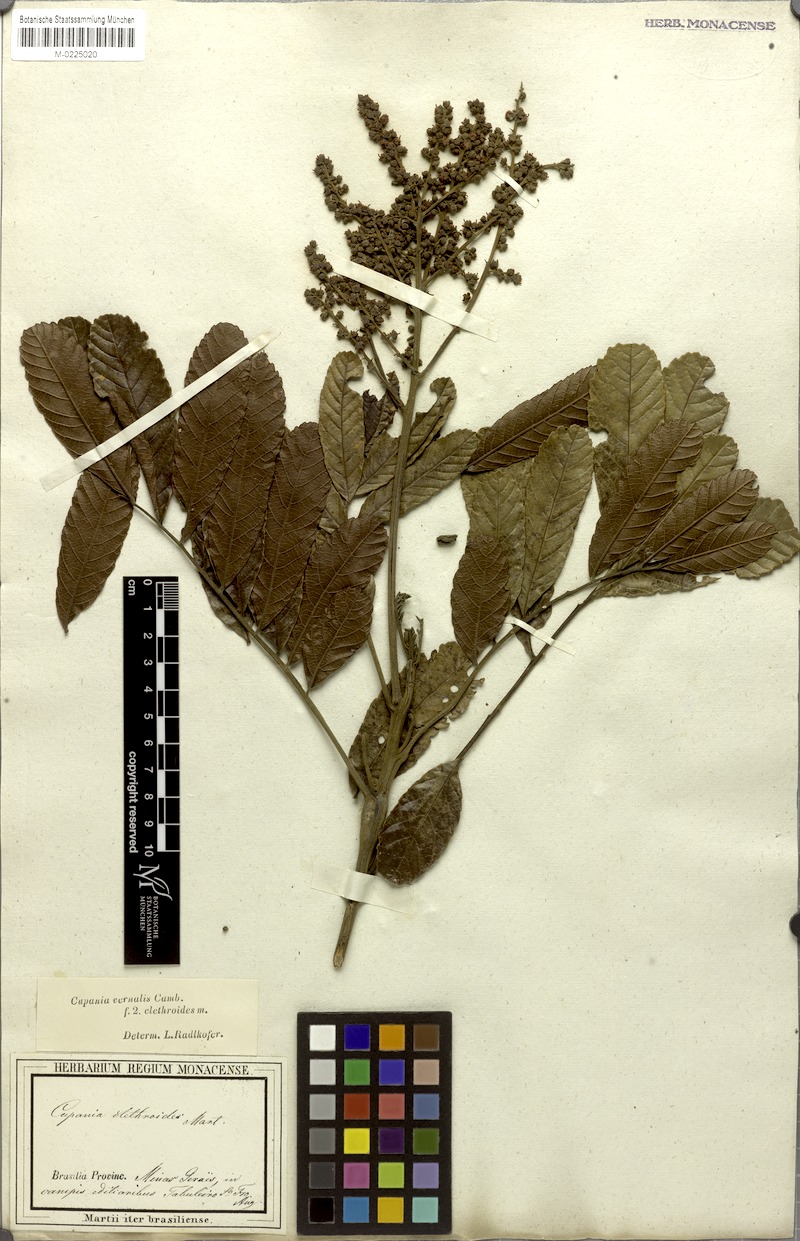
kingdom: Plantae
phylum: Tracheophyta
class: Magnoliopsida
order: Sapindales
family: Sapindaceae
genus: Cupania
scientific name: Cupania vernalis
